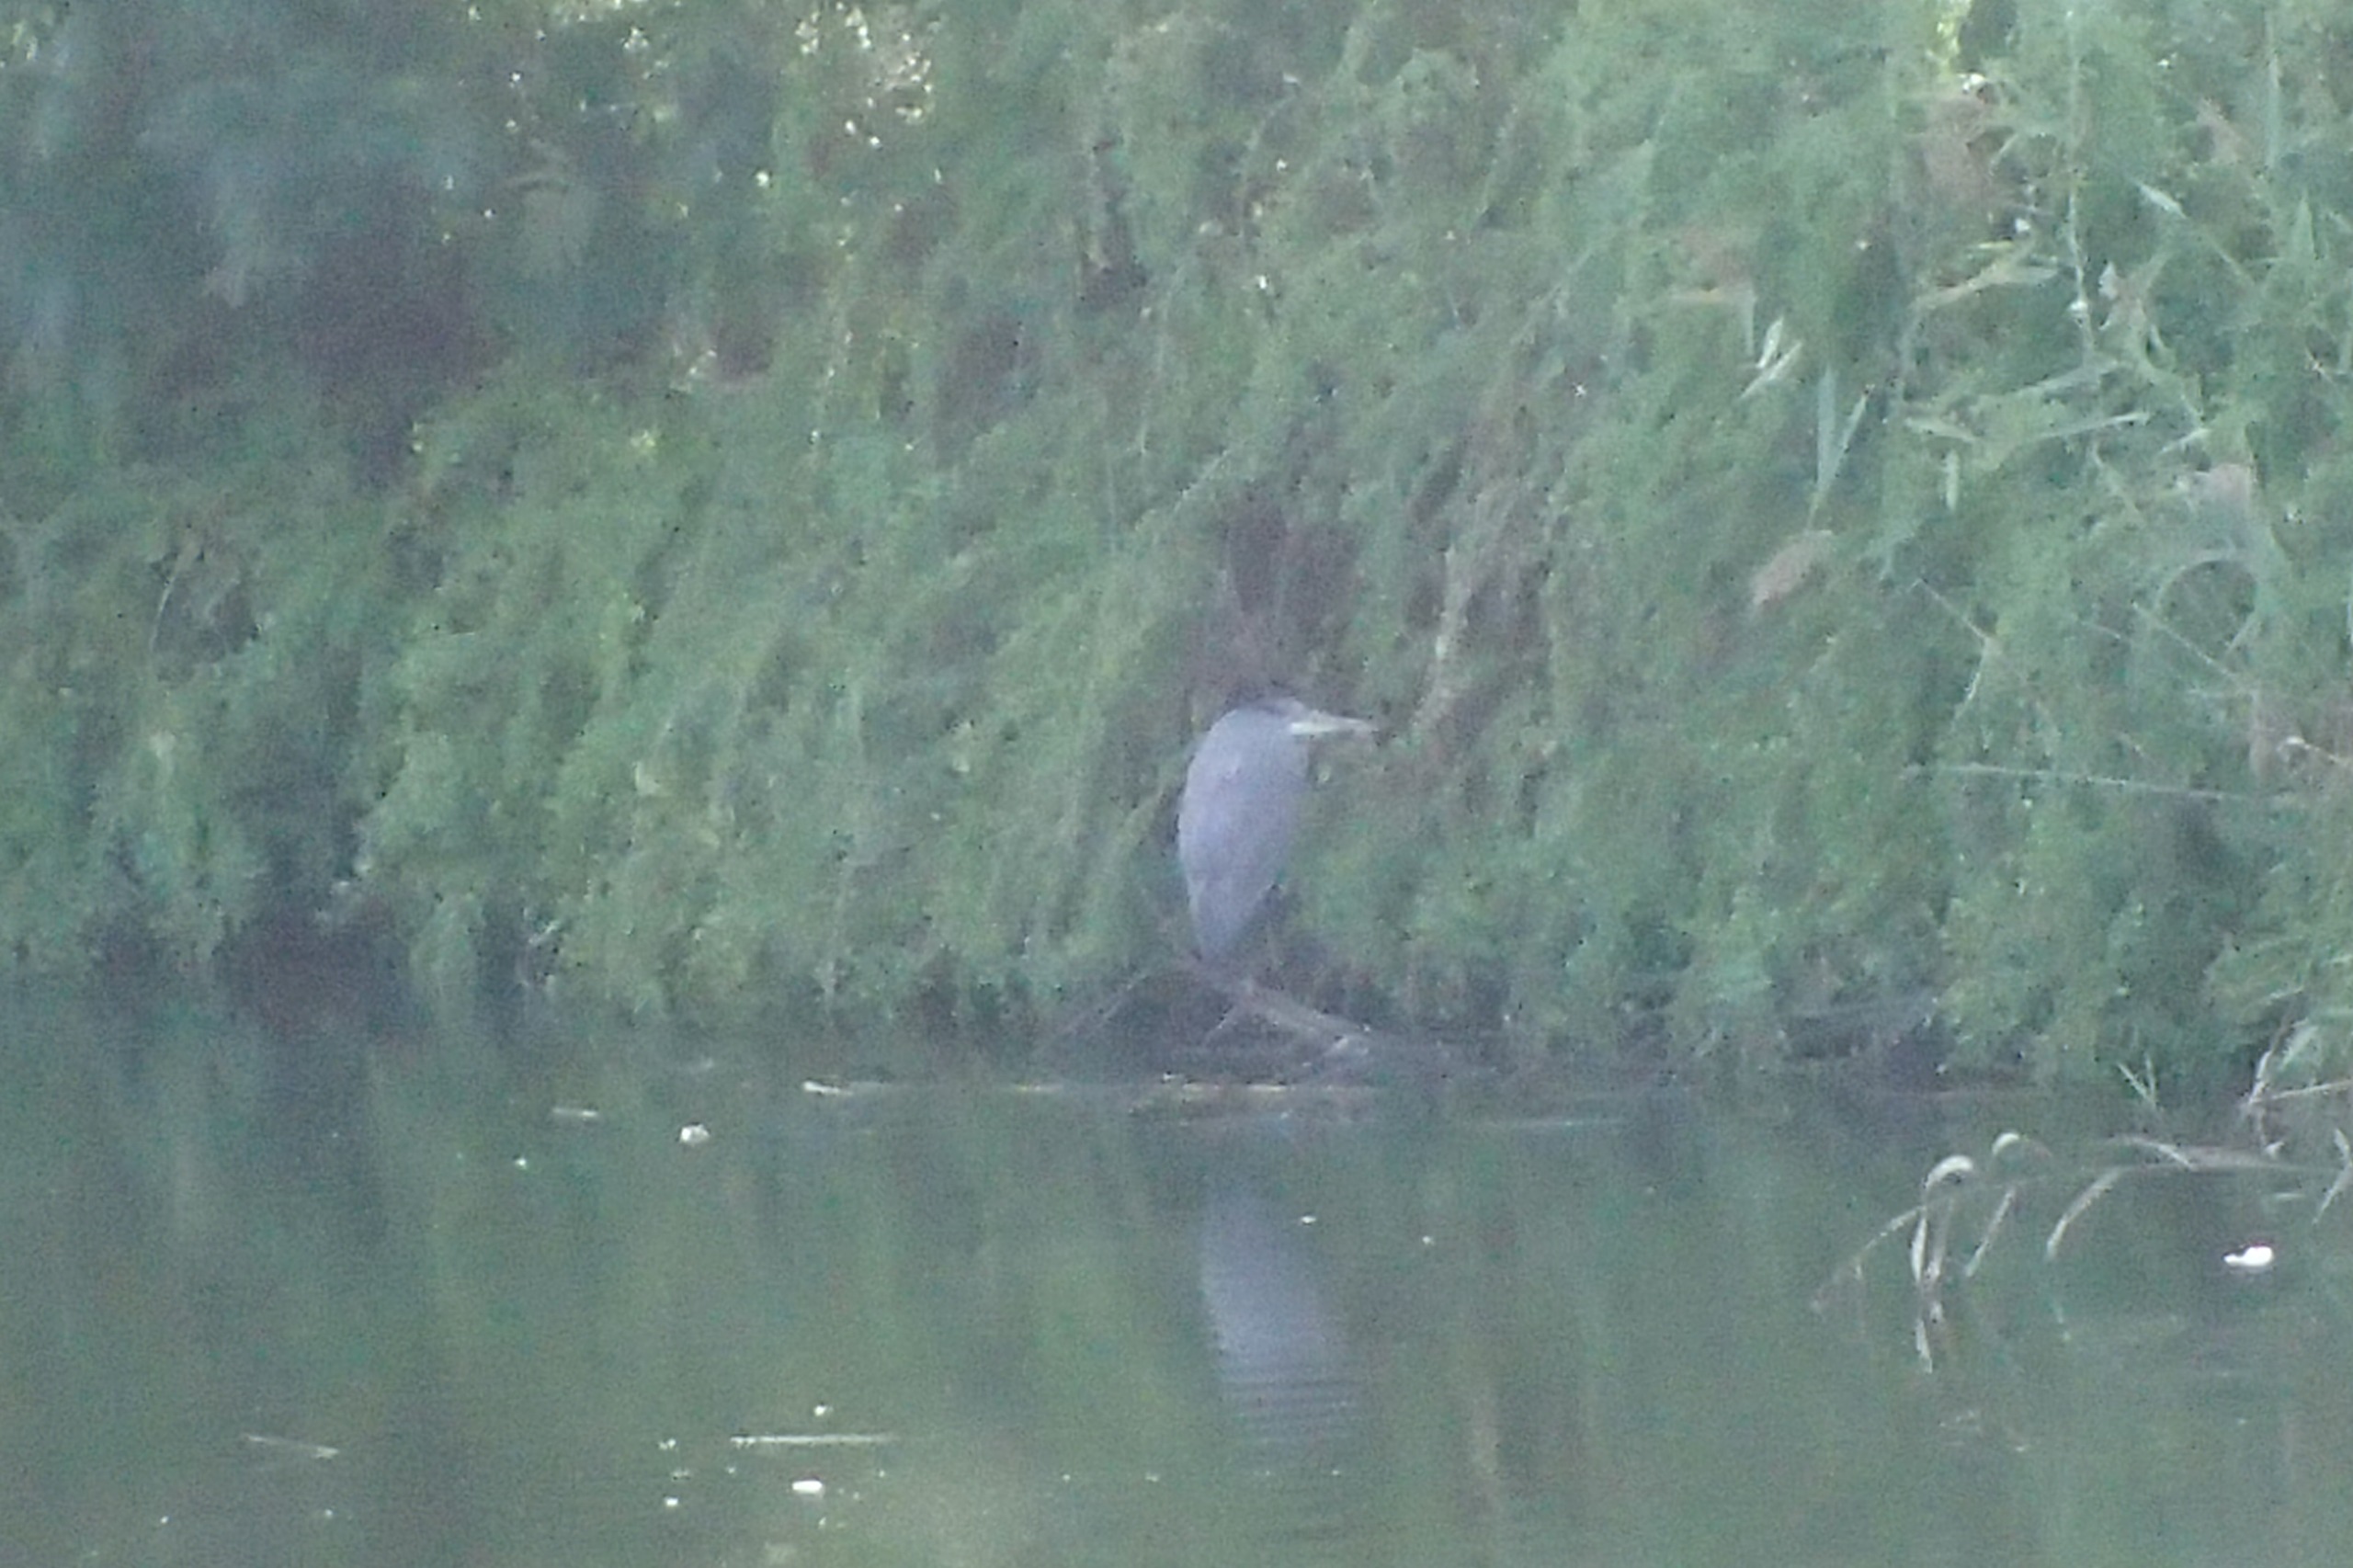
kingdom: Animalia
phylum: Chordata
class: Aves
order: Pelecaniformes
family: Ardeidae
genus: Ardea
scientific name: Ardea cinerea
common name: Fiskehejre
